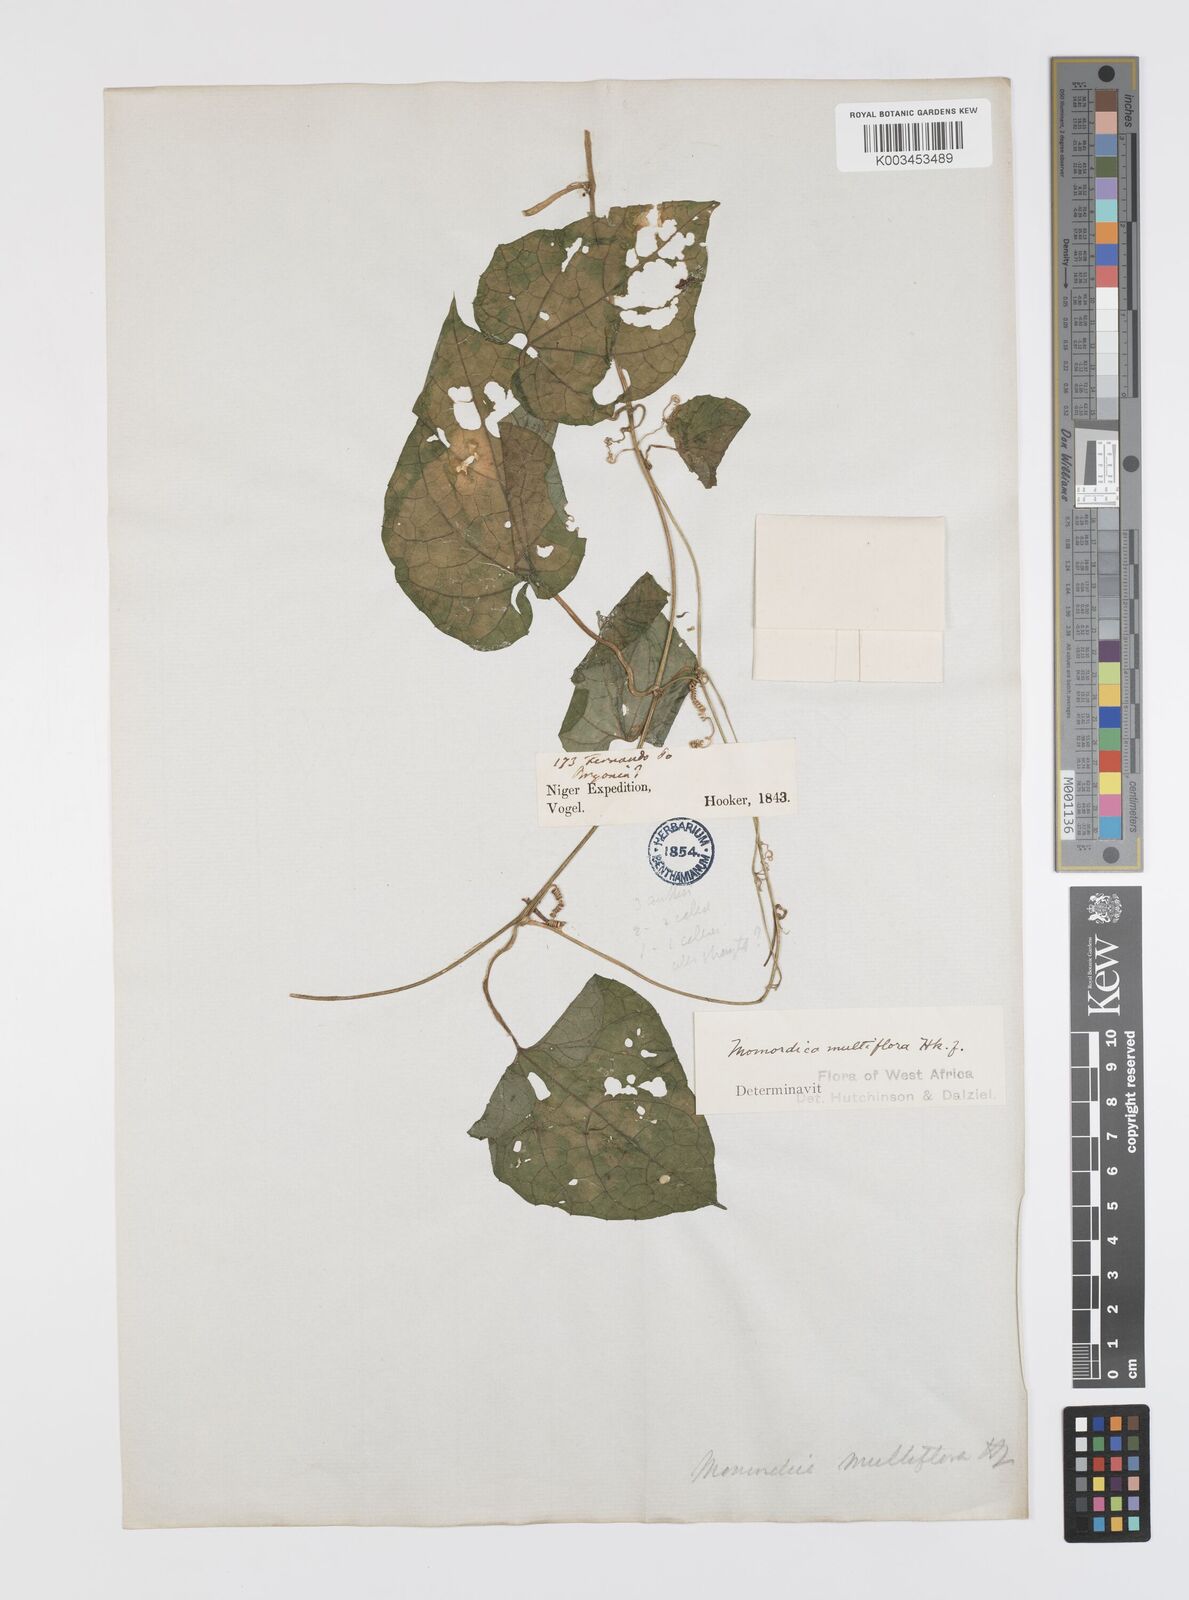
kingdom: Plantae
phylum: Tracheophyta
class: Magnoliopsida
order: Cucurbitales
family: Cucurbitaceae
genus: Momordica
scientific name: Momordica multiflora
